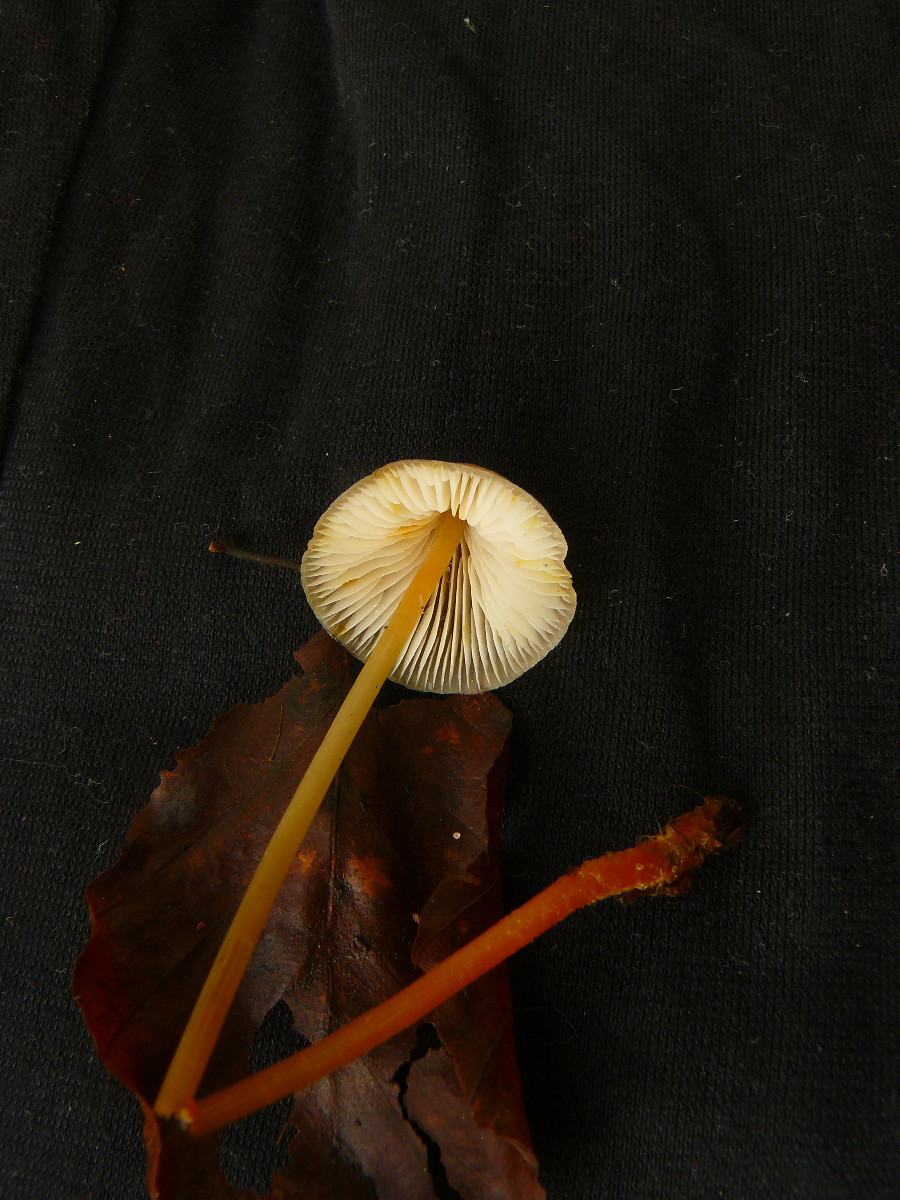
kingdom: Fungi
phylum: Basidiomycota
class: Agaricomycetes
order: Agaricales
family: Mycenaceae
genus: Mycena
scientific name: Mycena crocata
